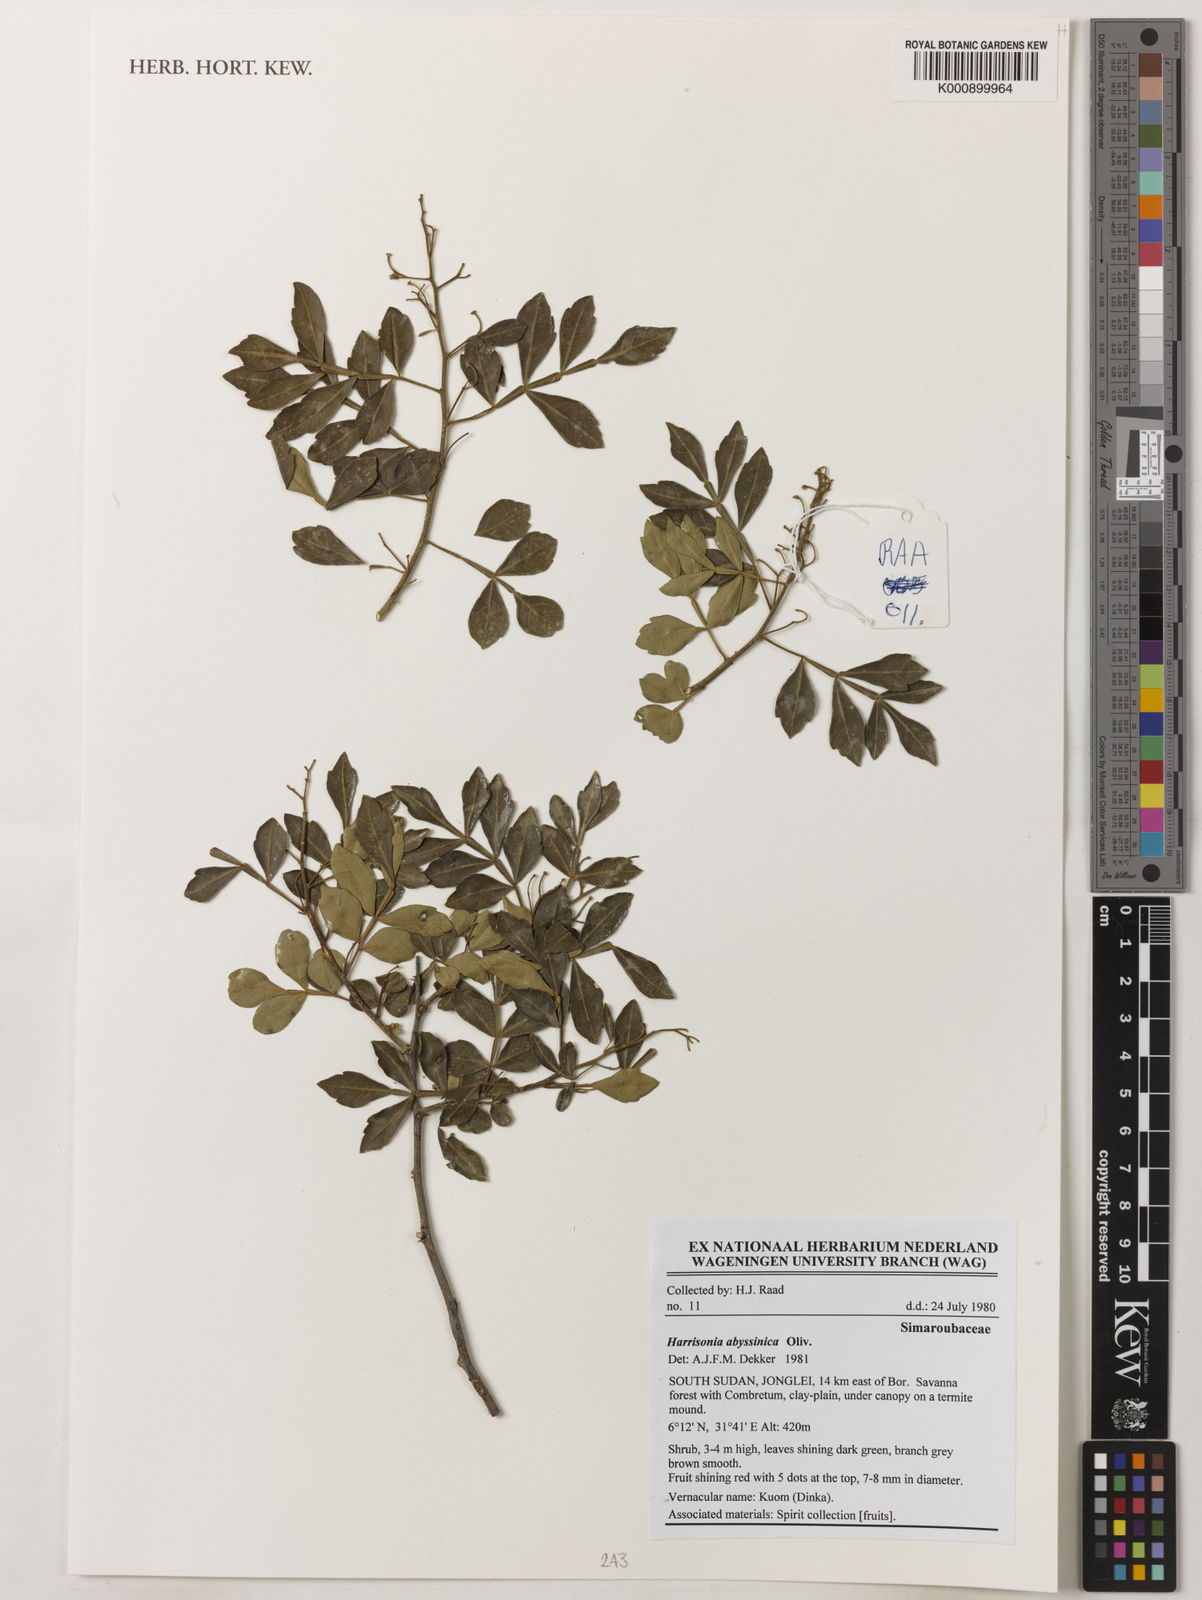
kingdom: Plantae
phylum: Tracheophyta
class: Magnoliopsida
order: Sapindales
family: Rutaceae
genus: Harrisonia
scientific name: Harrisonia abyssinica
